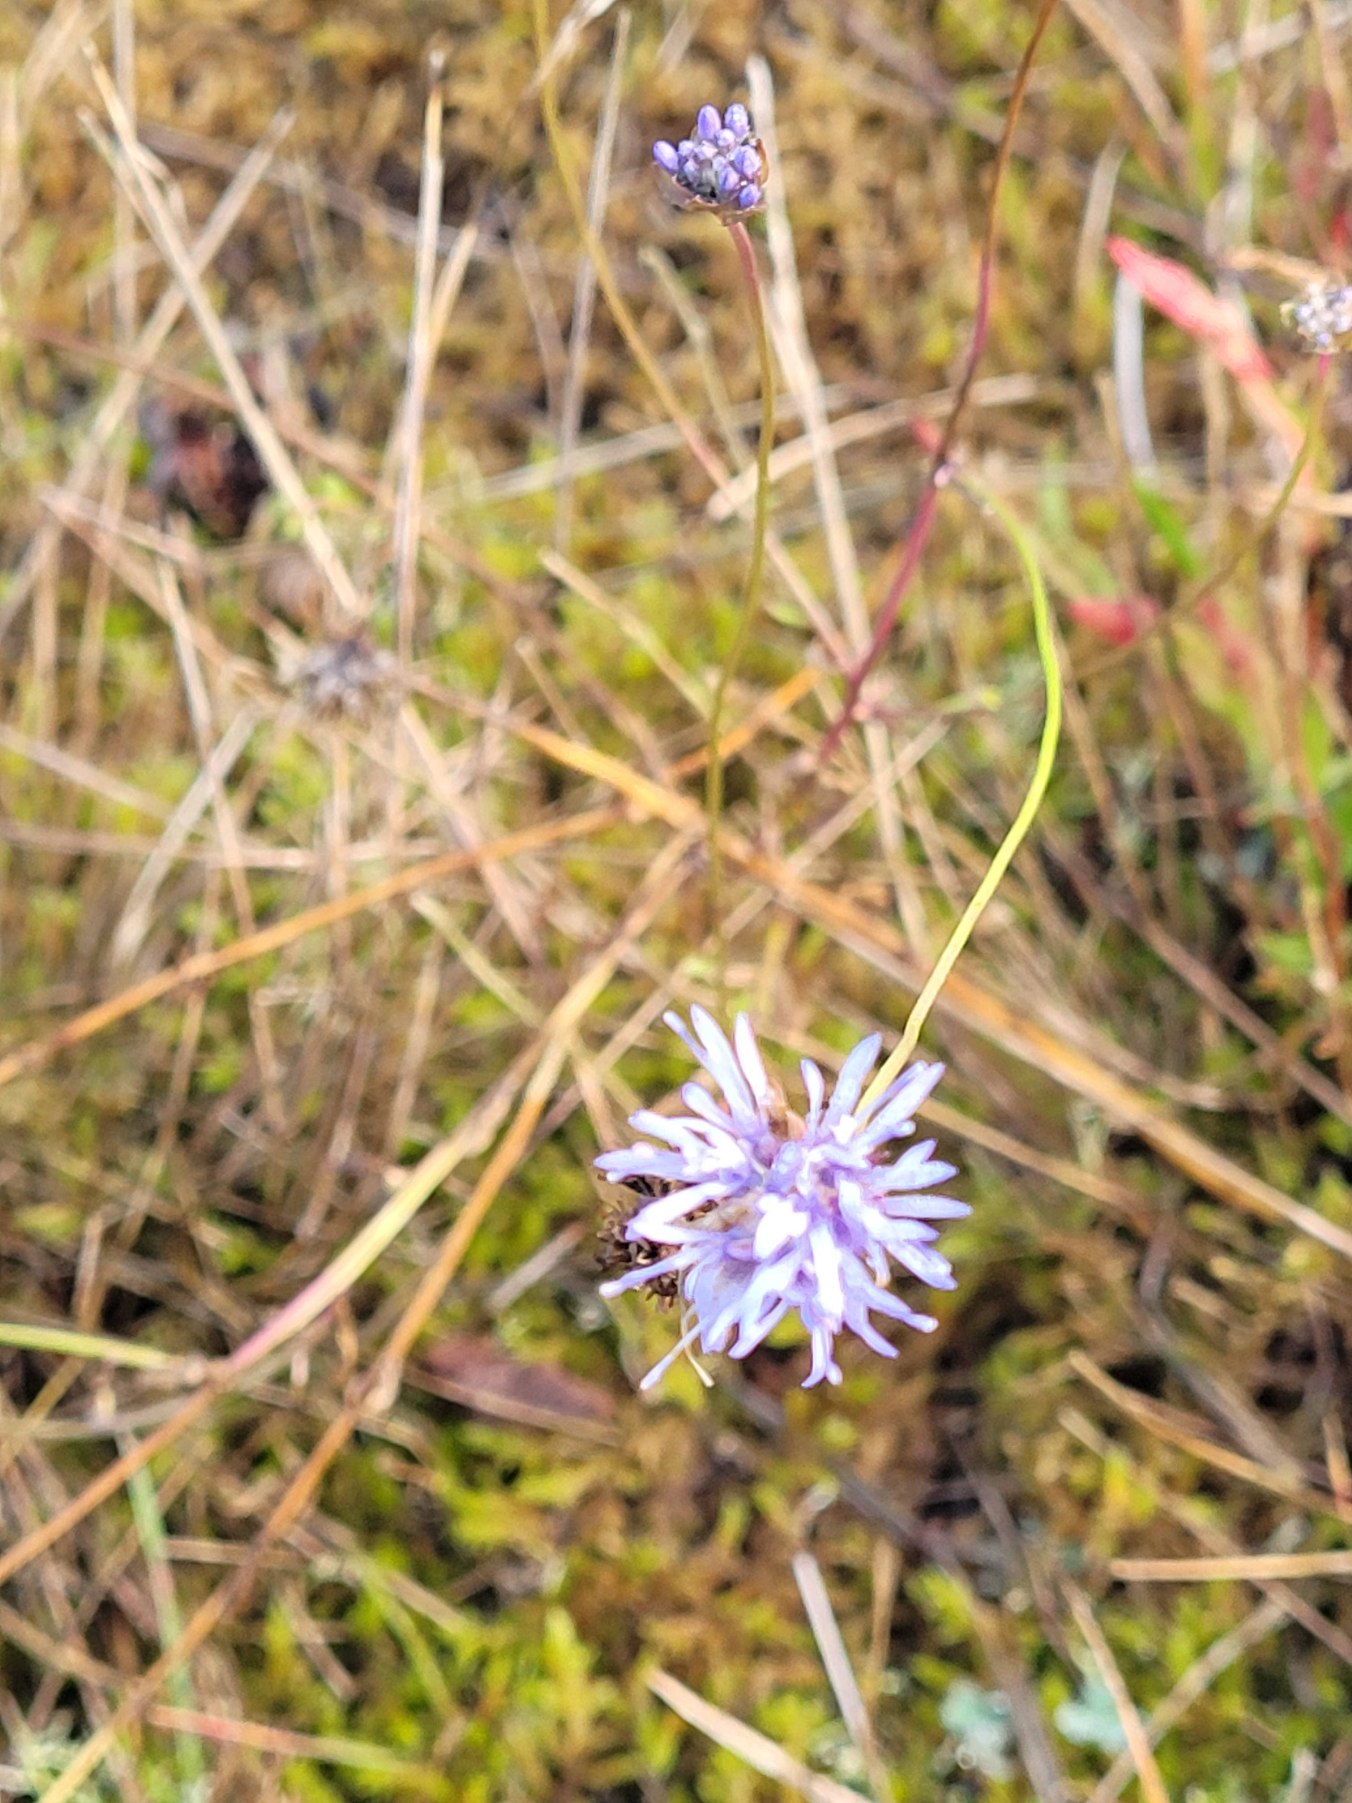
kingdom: Plantae
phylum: Tracheophyta
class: Magnoliopsida
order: Asterales
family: Campanulaceae
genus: Jasione
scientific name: Jasione montana
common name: Blåmunke
